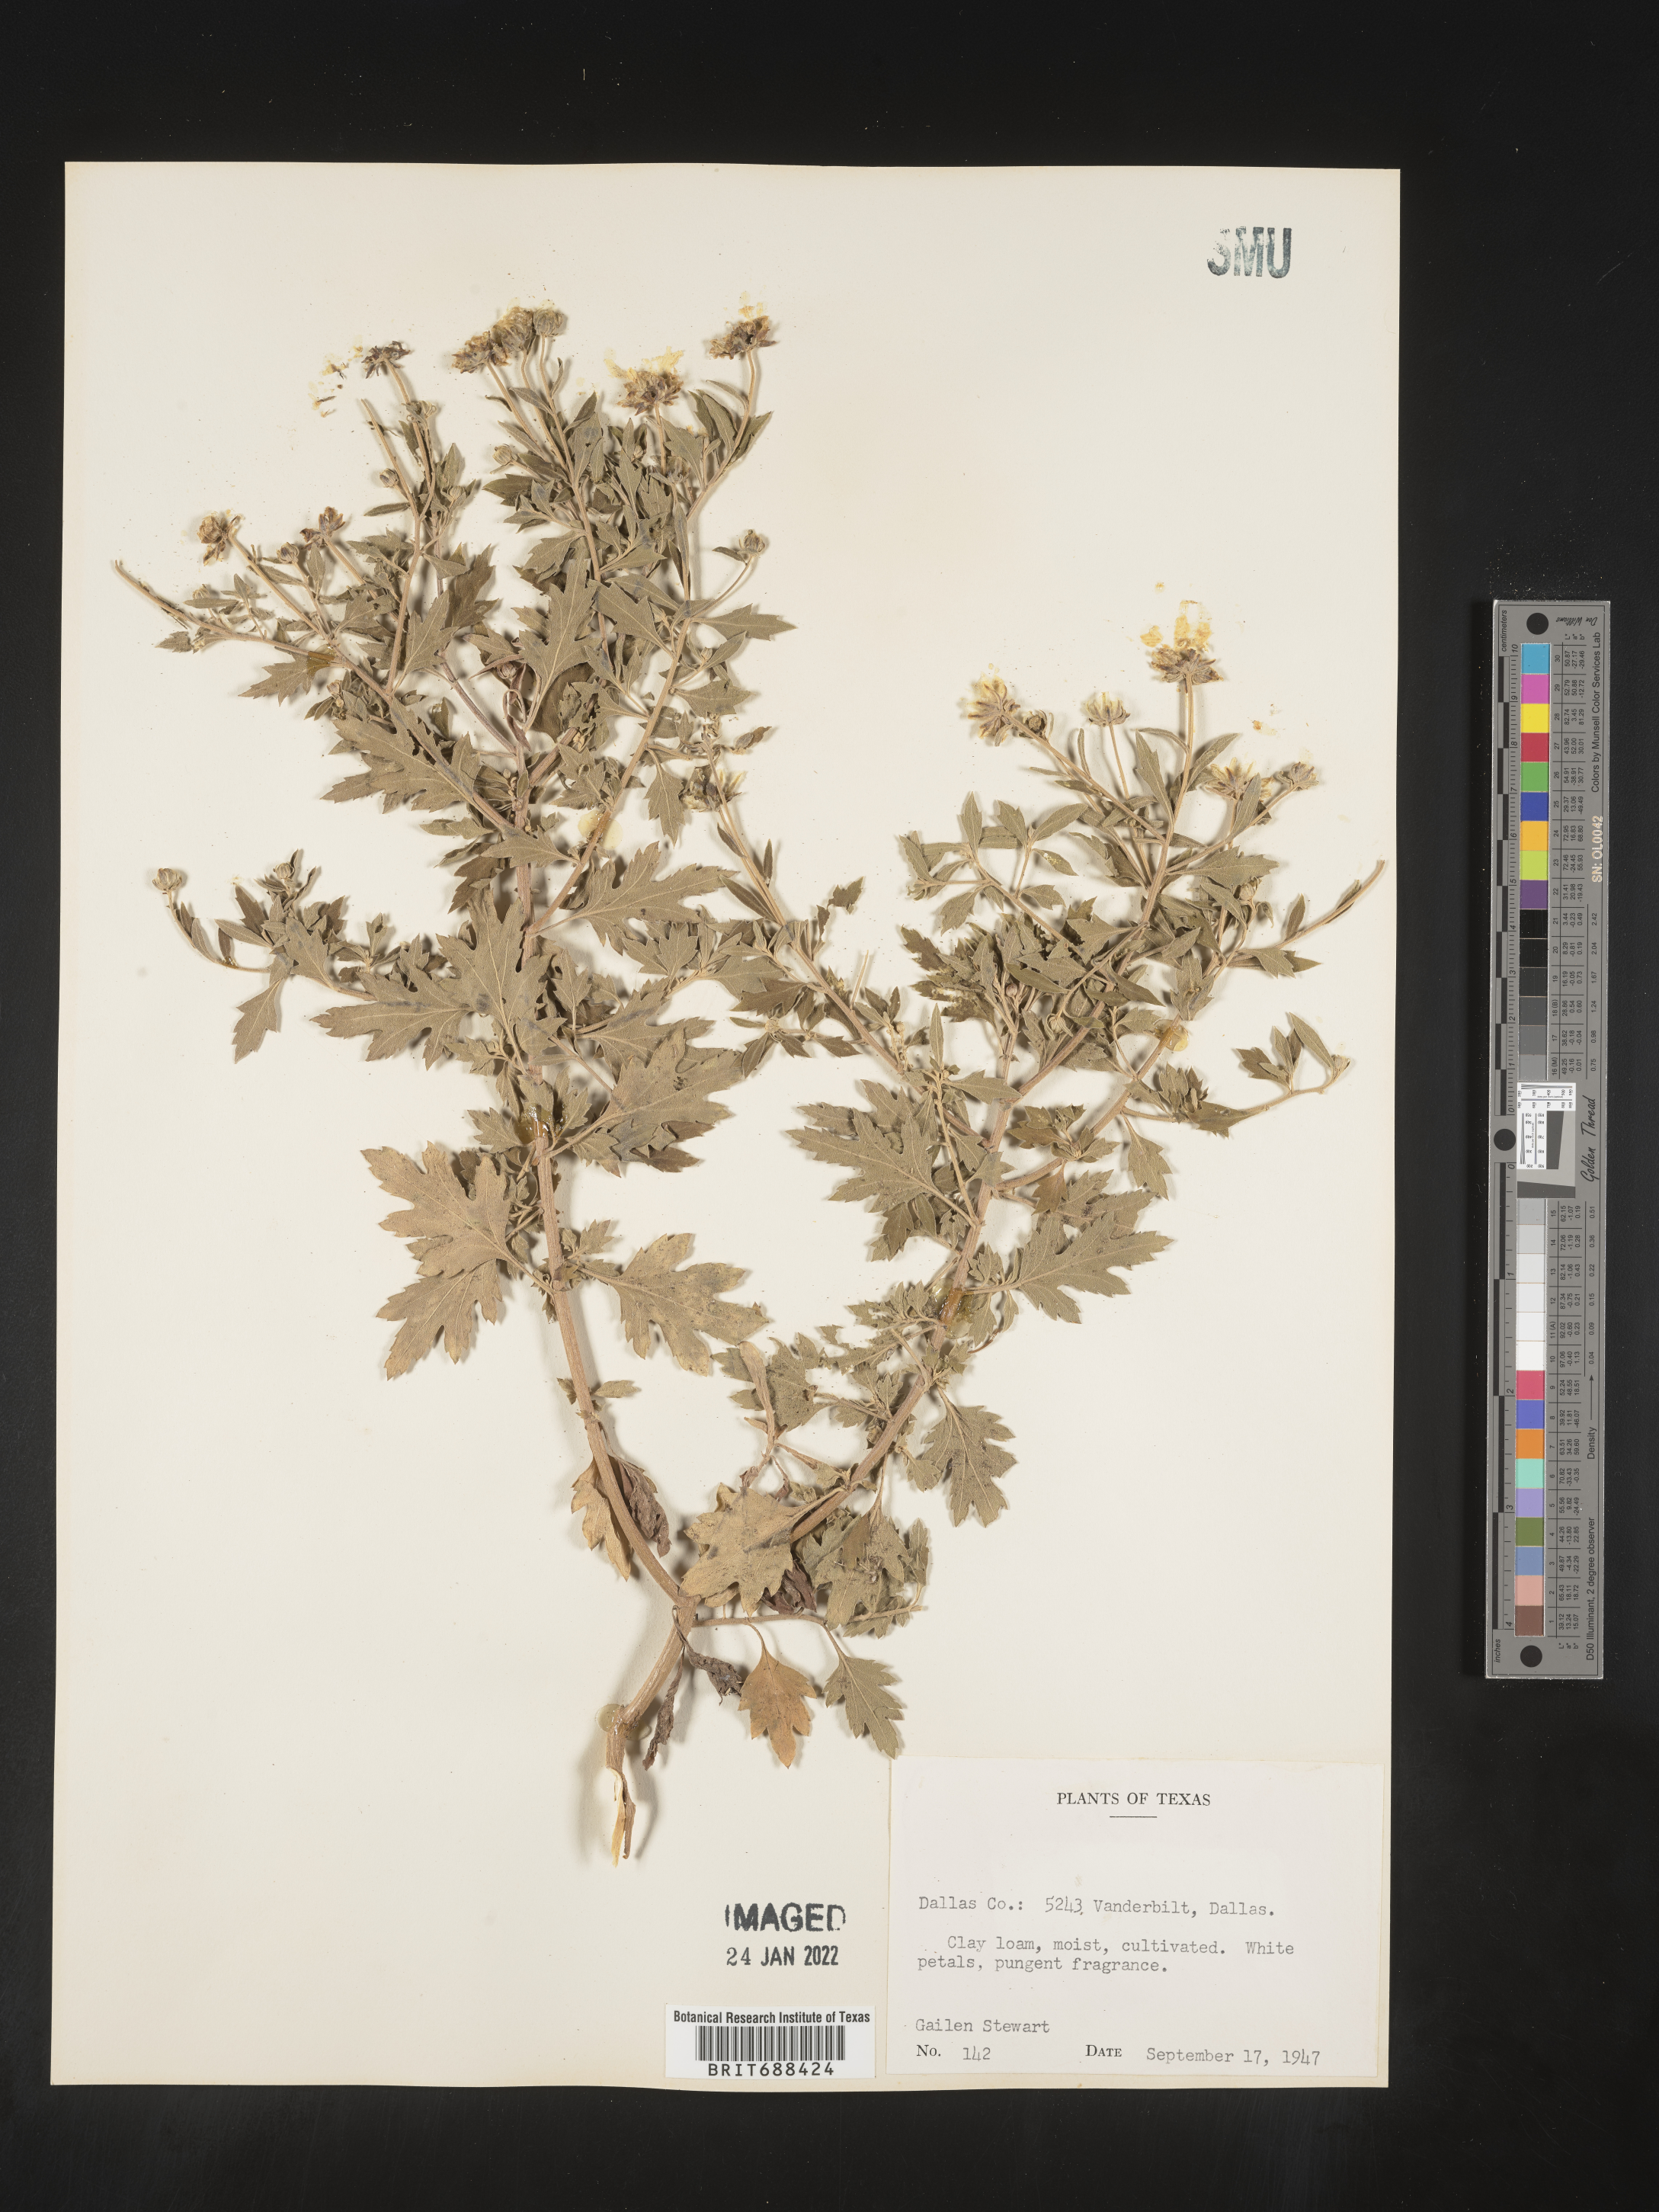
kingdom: Plantae
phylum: Tracheophyta
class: Magnoliopsida
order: Asterales
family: Asteraceae
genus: Chrysanthemum
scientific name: Chrysanthemum
